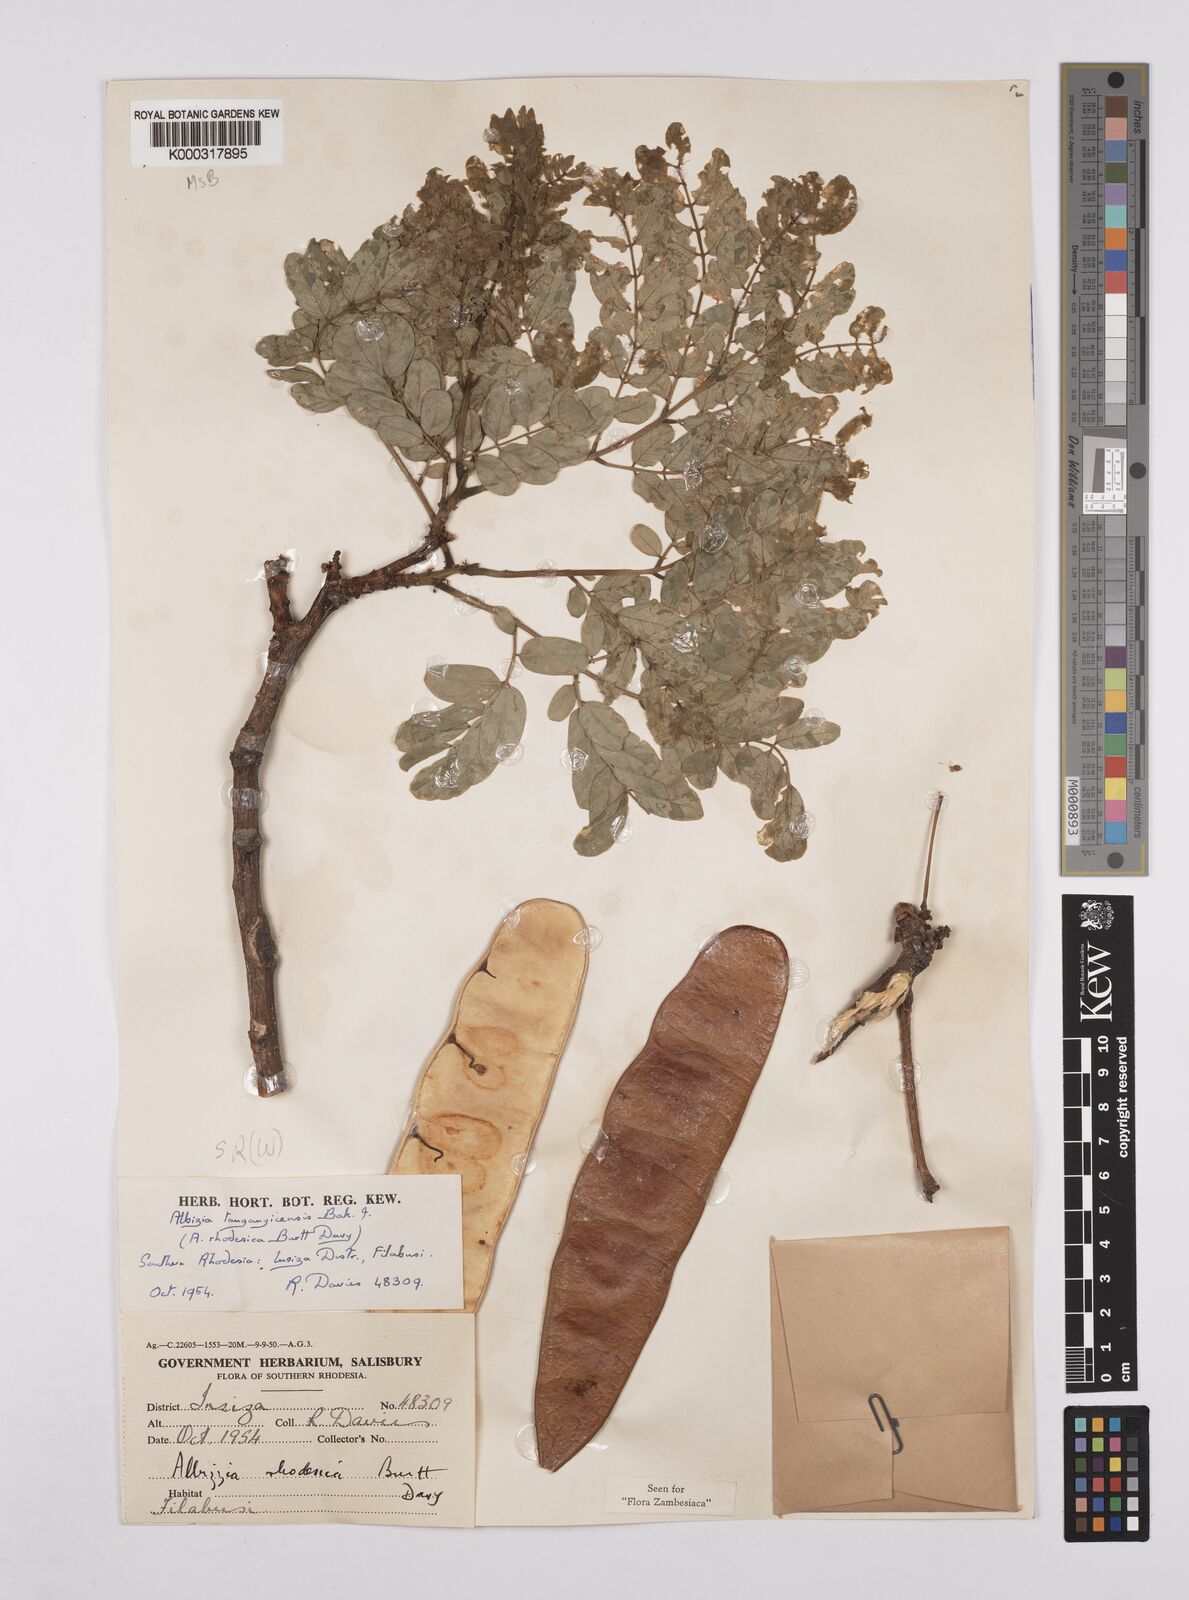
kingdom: Plantae
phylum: Tracheophyta
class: Magnoliopsida
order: Fabales
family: Fabaceae
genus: Albizia
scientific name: Albizia tanganyicensis
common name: Paperbark false thorn
